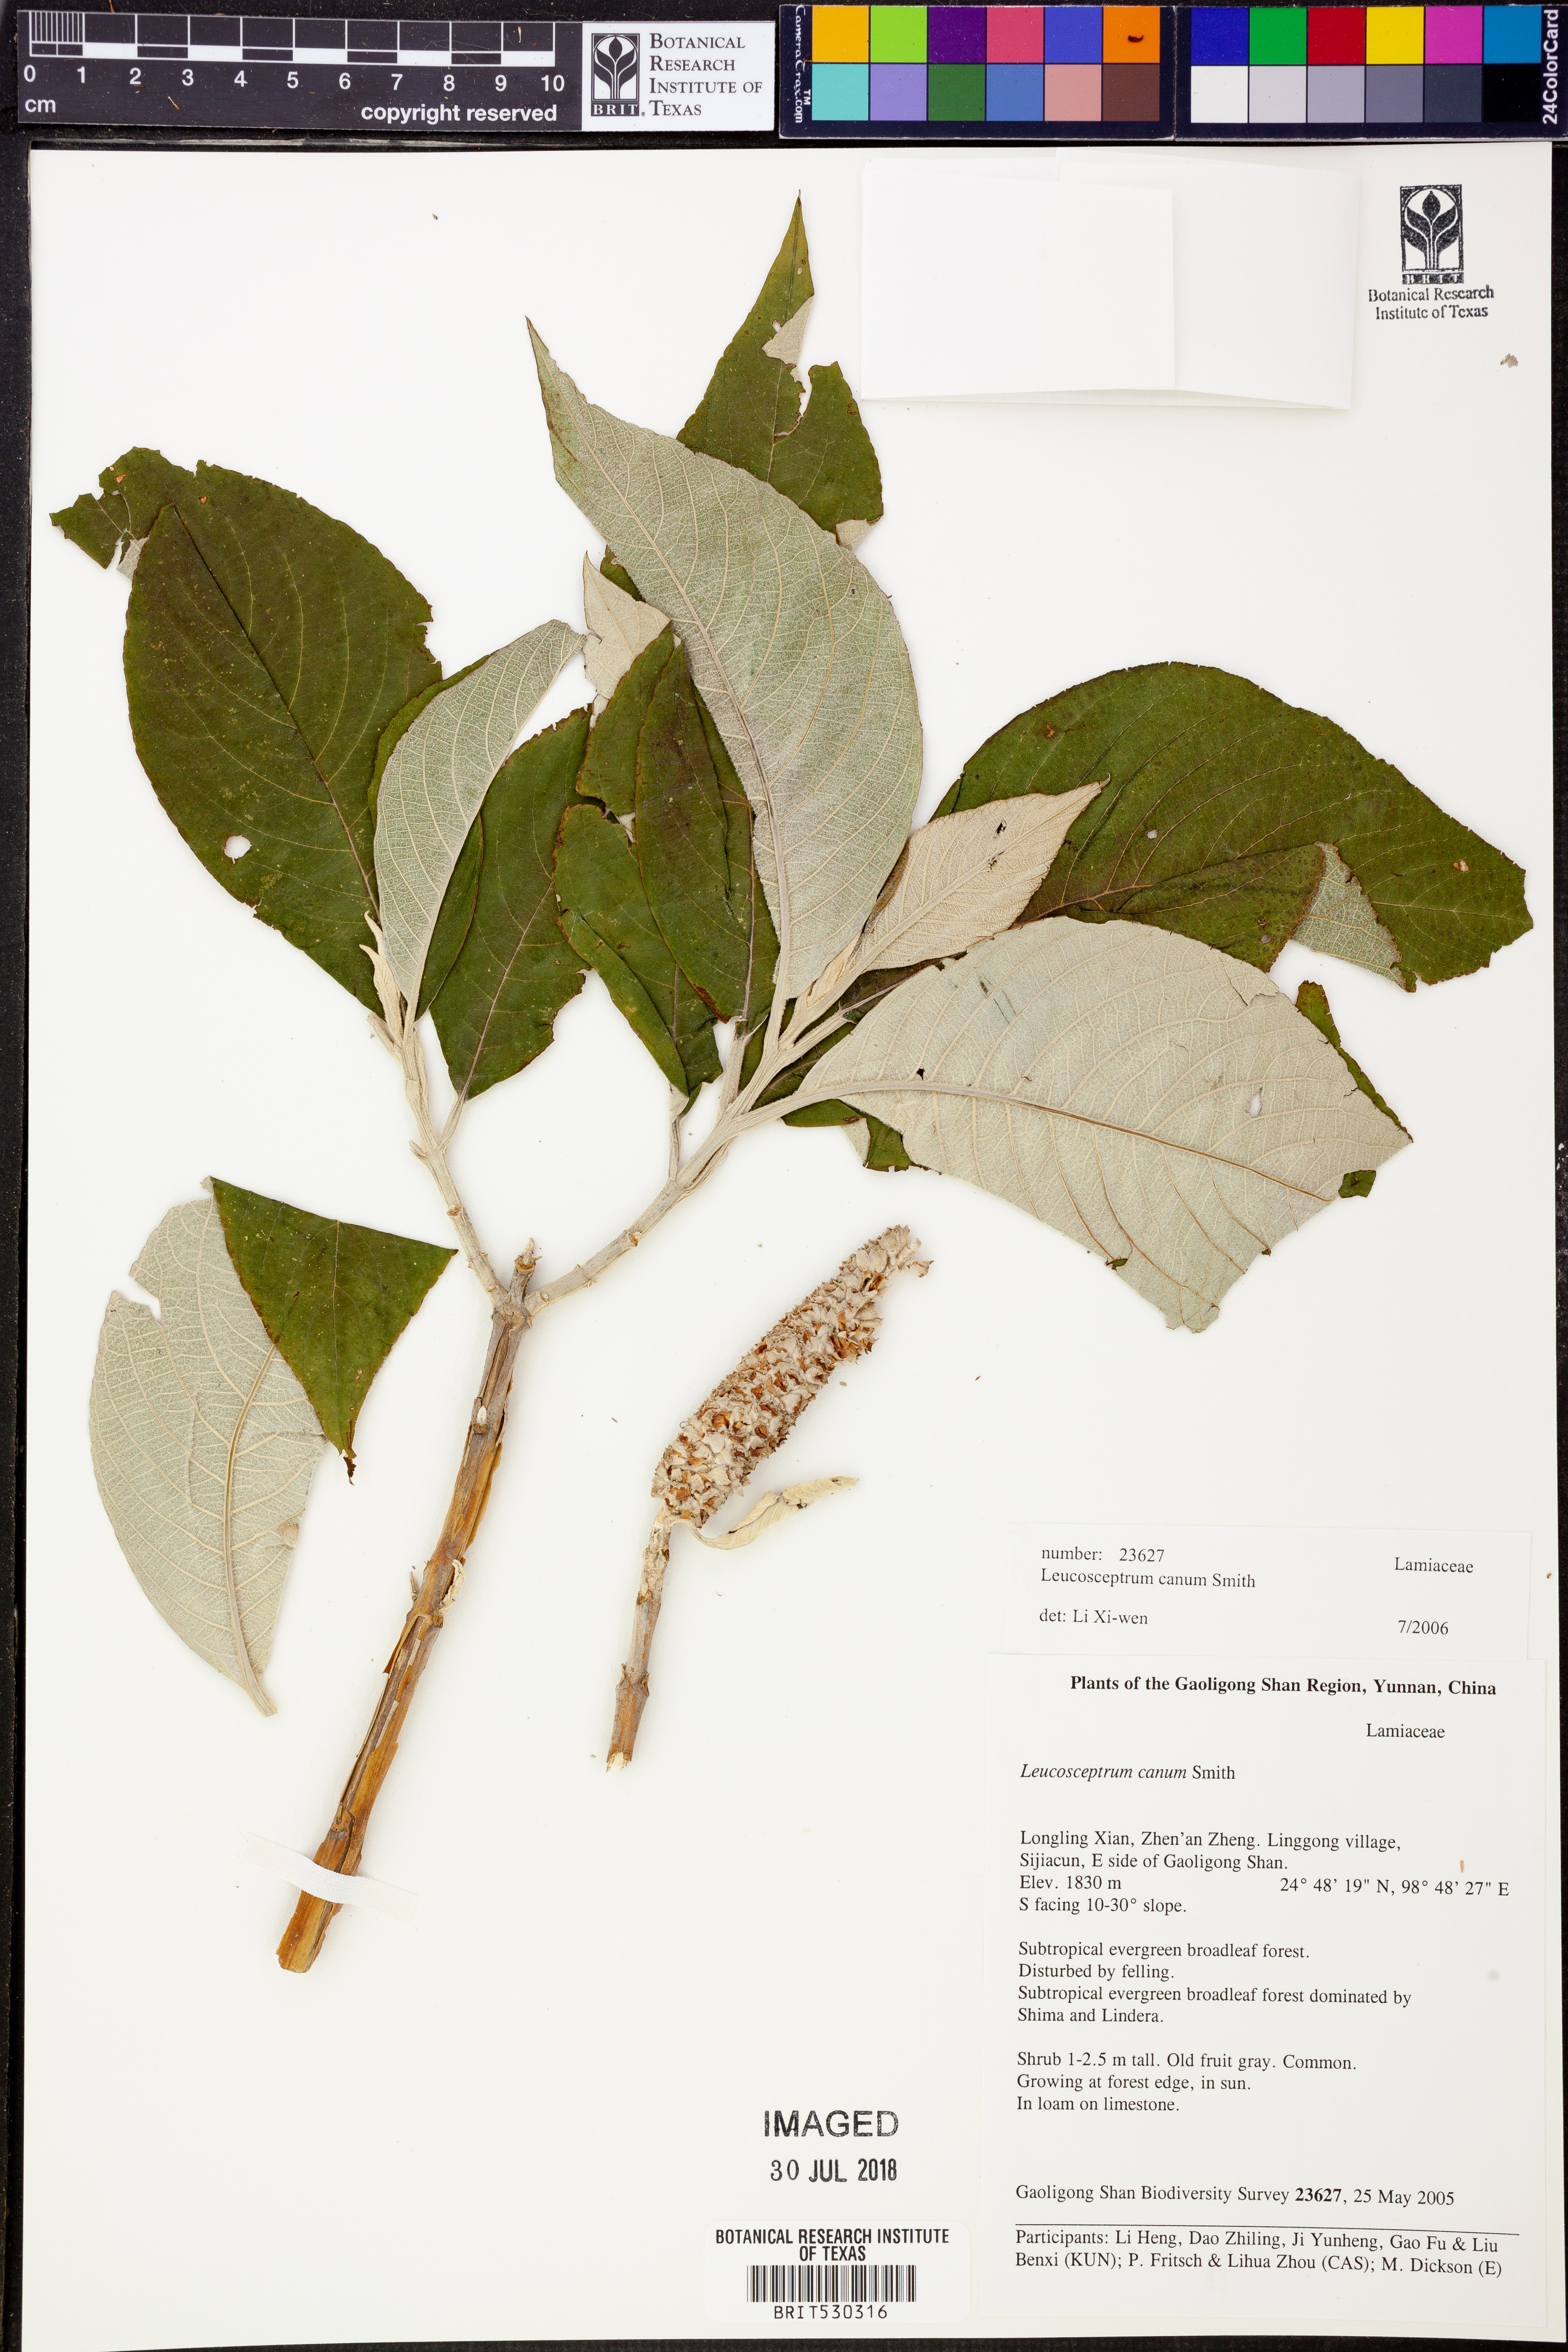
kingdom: Plantae
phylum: Tracheophyta
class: Magnoliopsida
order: Lamiales
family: Lamiaceae
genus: Leucosceptrum
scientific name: Leucosceptrum canum
